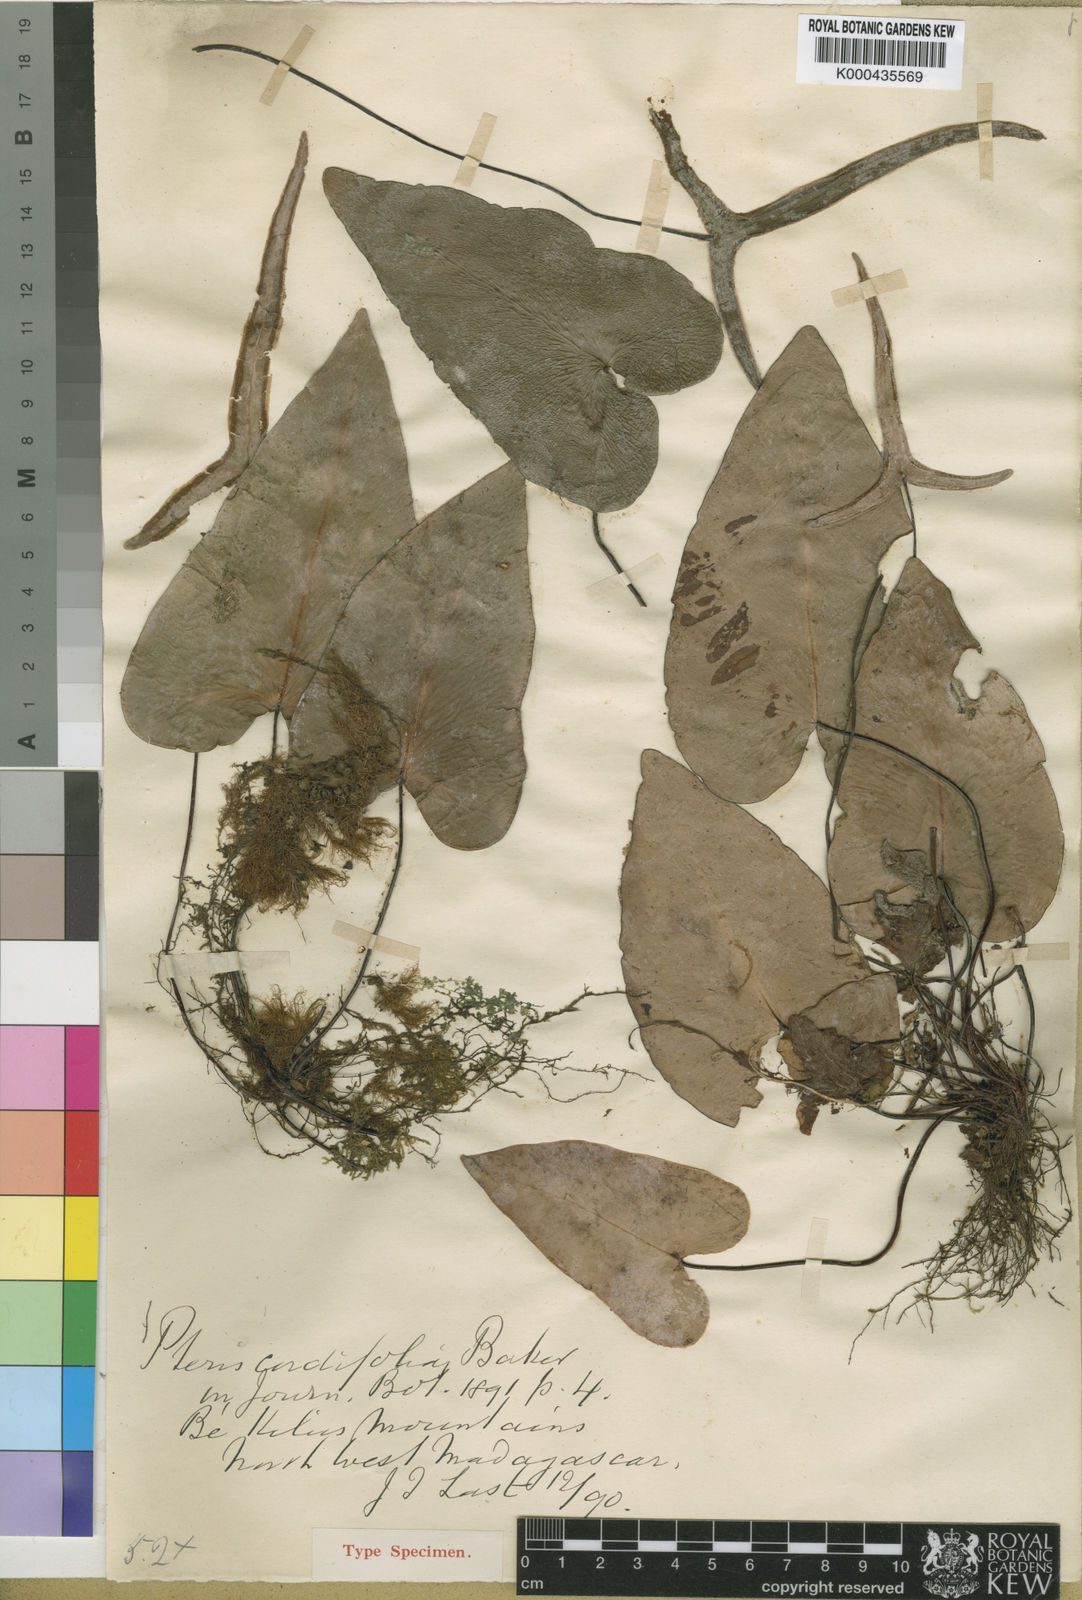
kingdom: Plantae
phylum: Tracheophyta
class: Polypodiopsida
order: Polypodiales
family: Pteridaceae
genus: Doryopteris
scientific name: Doryopteris cordifolia
